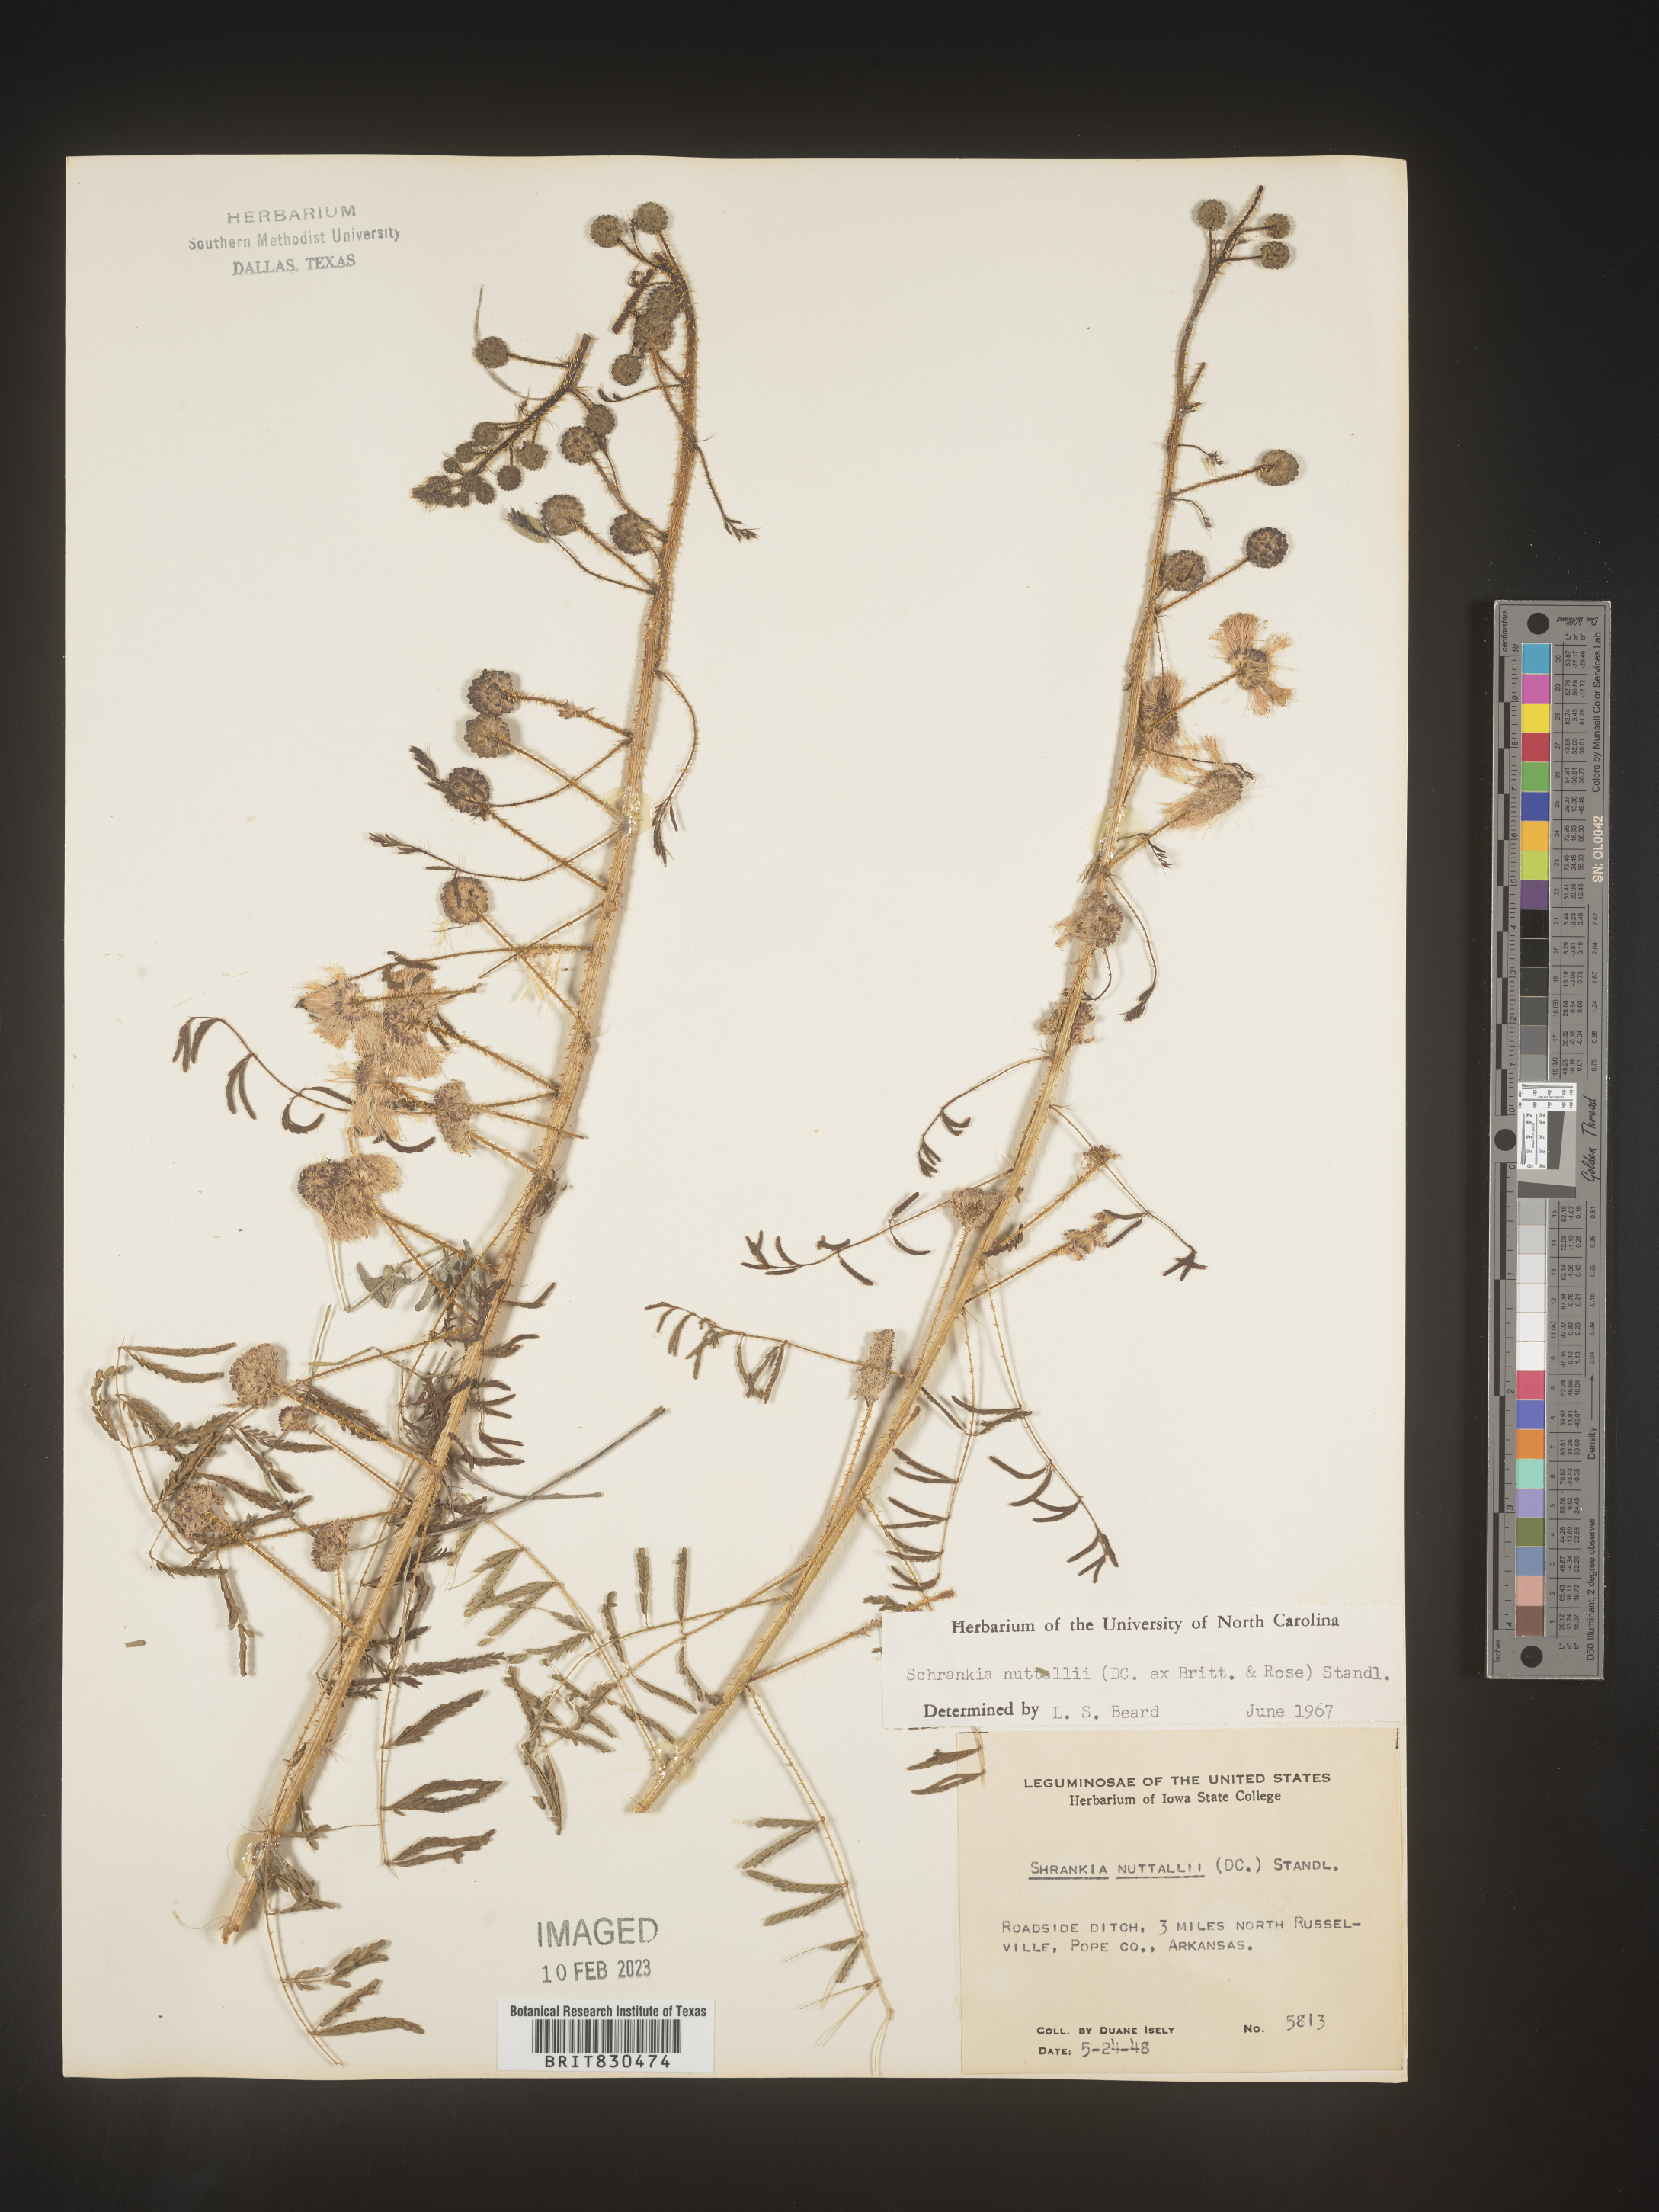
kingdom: Plantae
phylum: Tracheophyta
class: Magnoliopsida
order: Fabales
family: Fabaceae
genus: Mimosa
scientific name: Mimosa quadrivalvis
